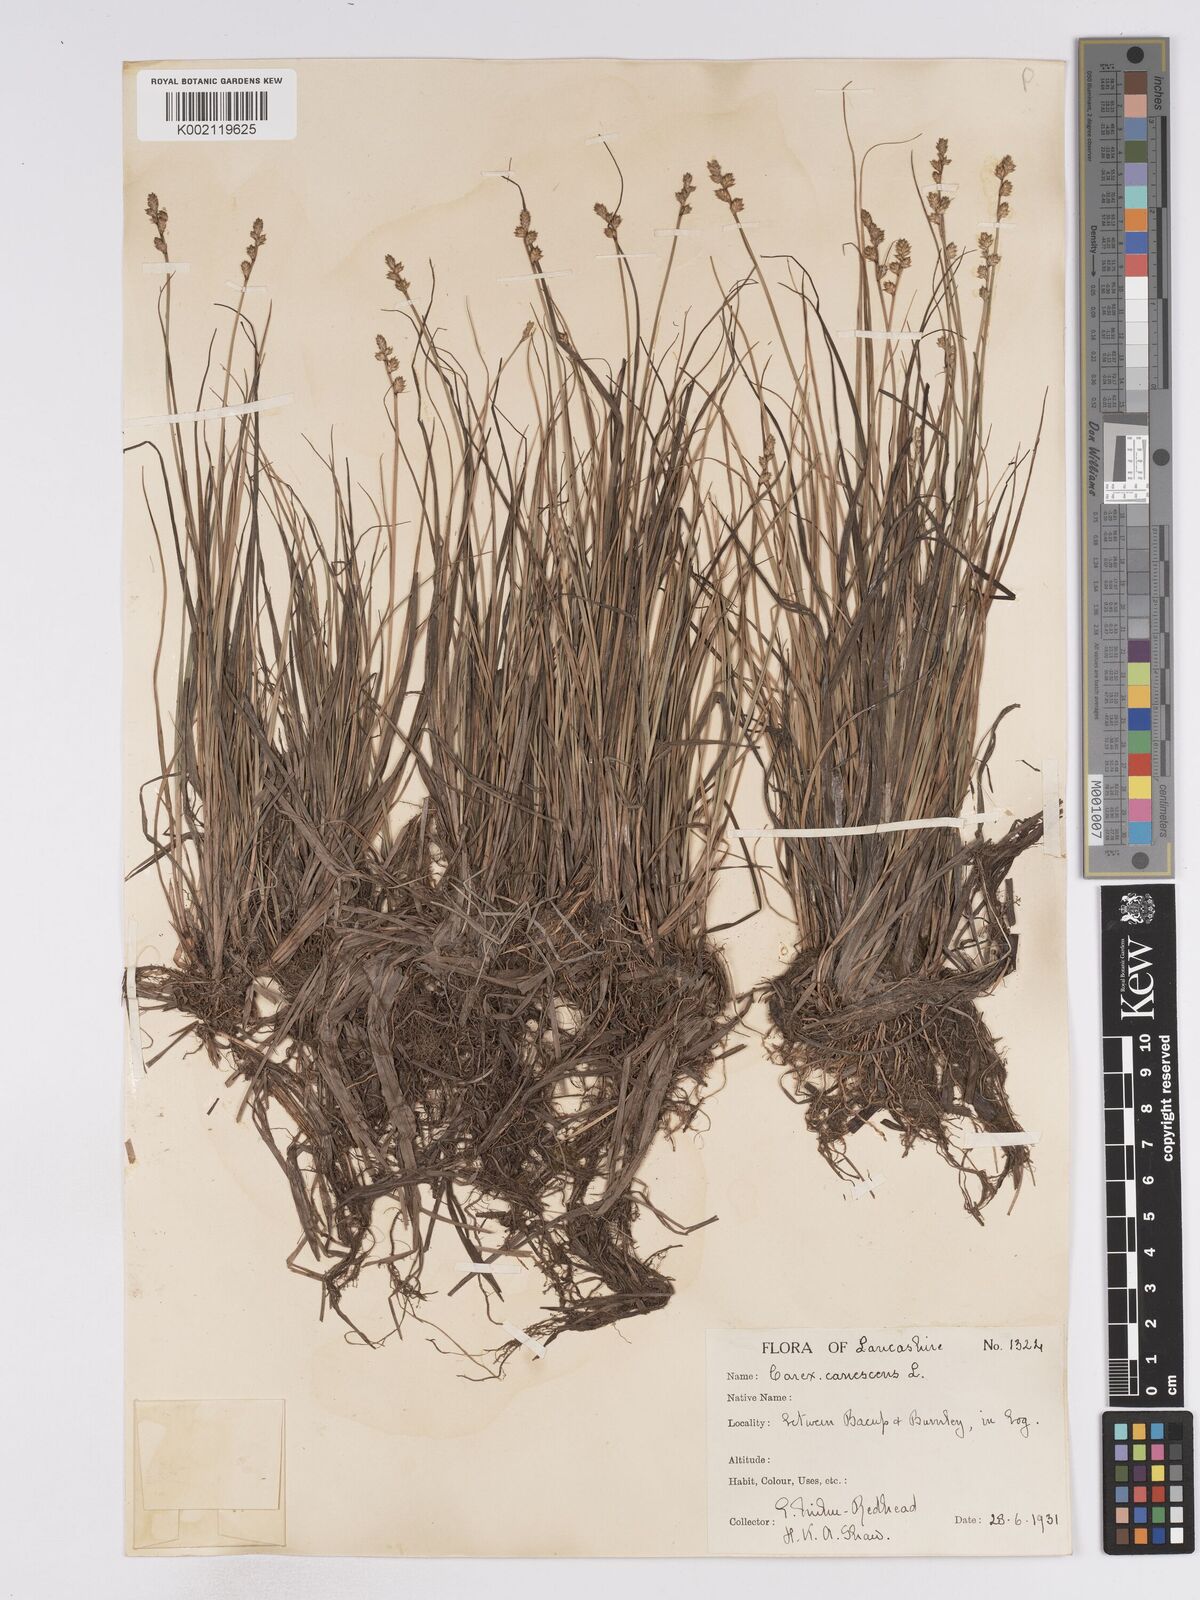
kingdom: Plantae
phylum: Tracheophyta
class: Liliopsida
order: Poales
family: Cyperaceae
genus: Carex
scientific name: Carex curta
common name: White sedge
